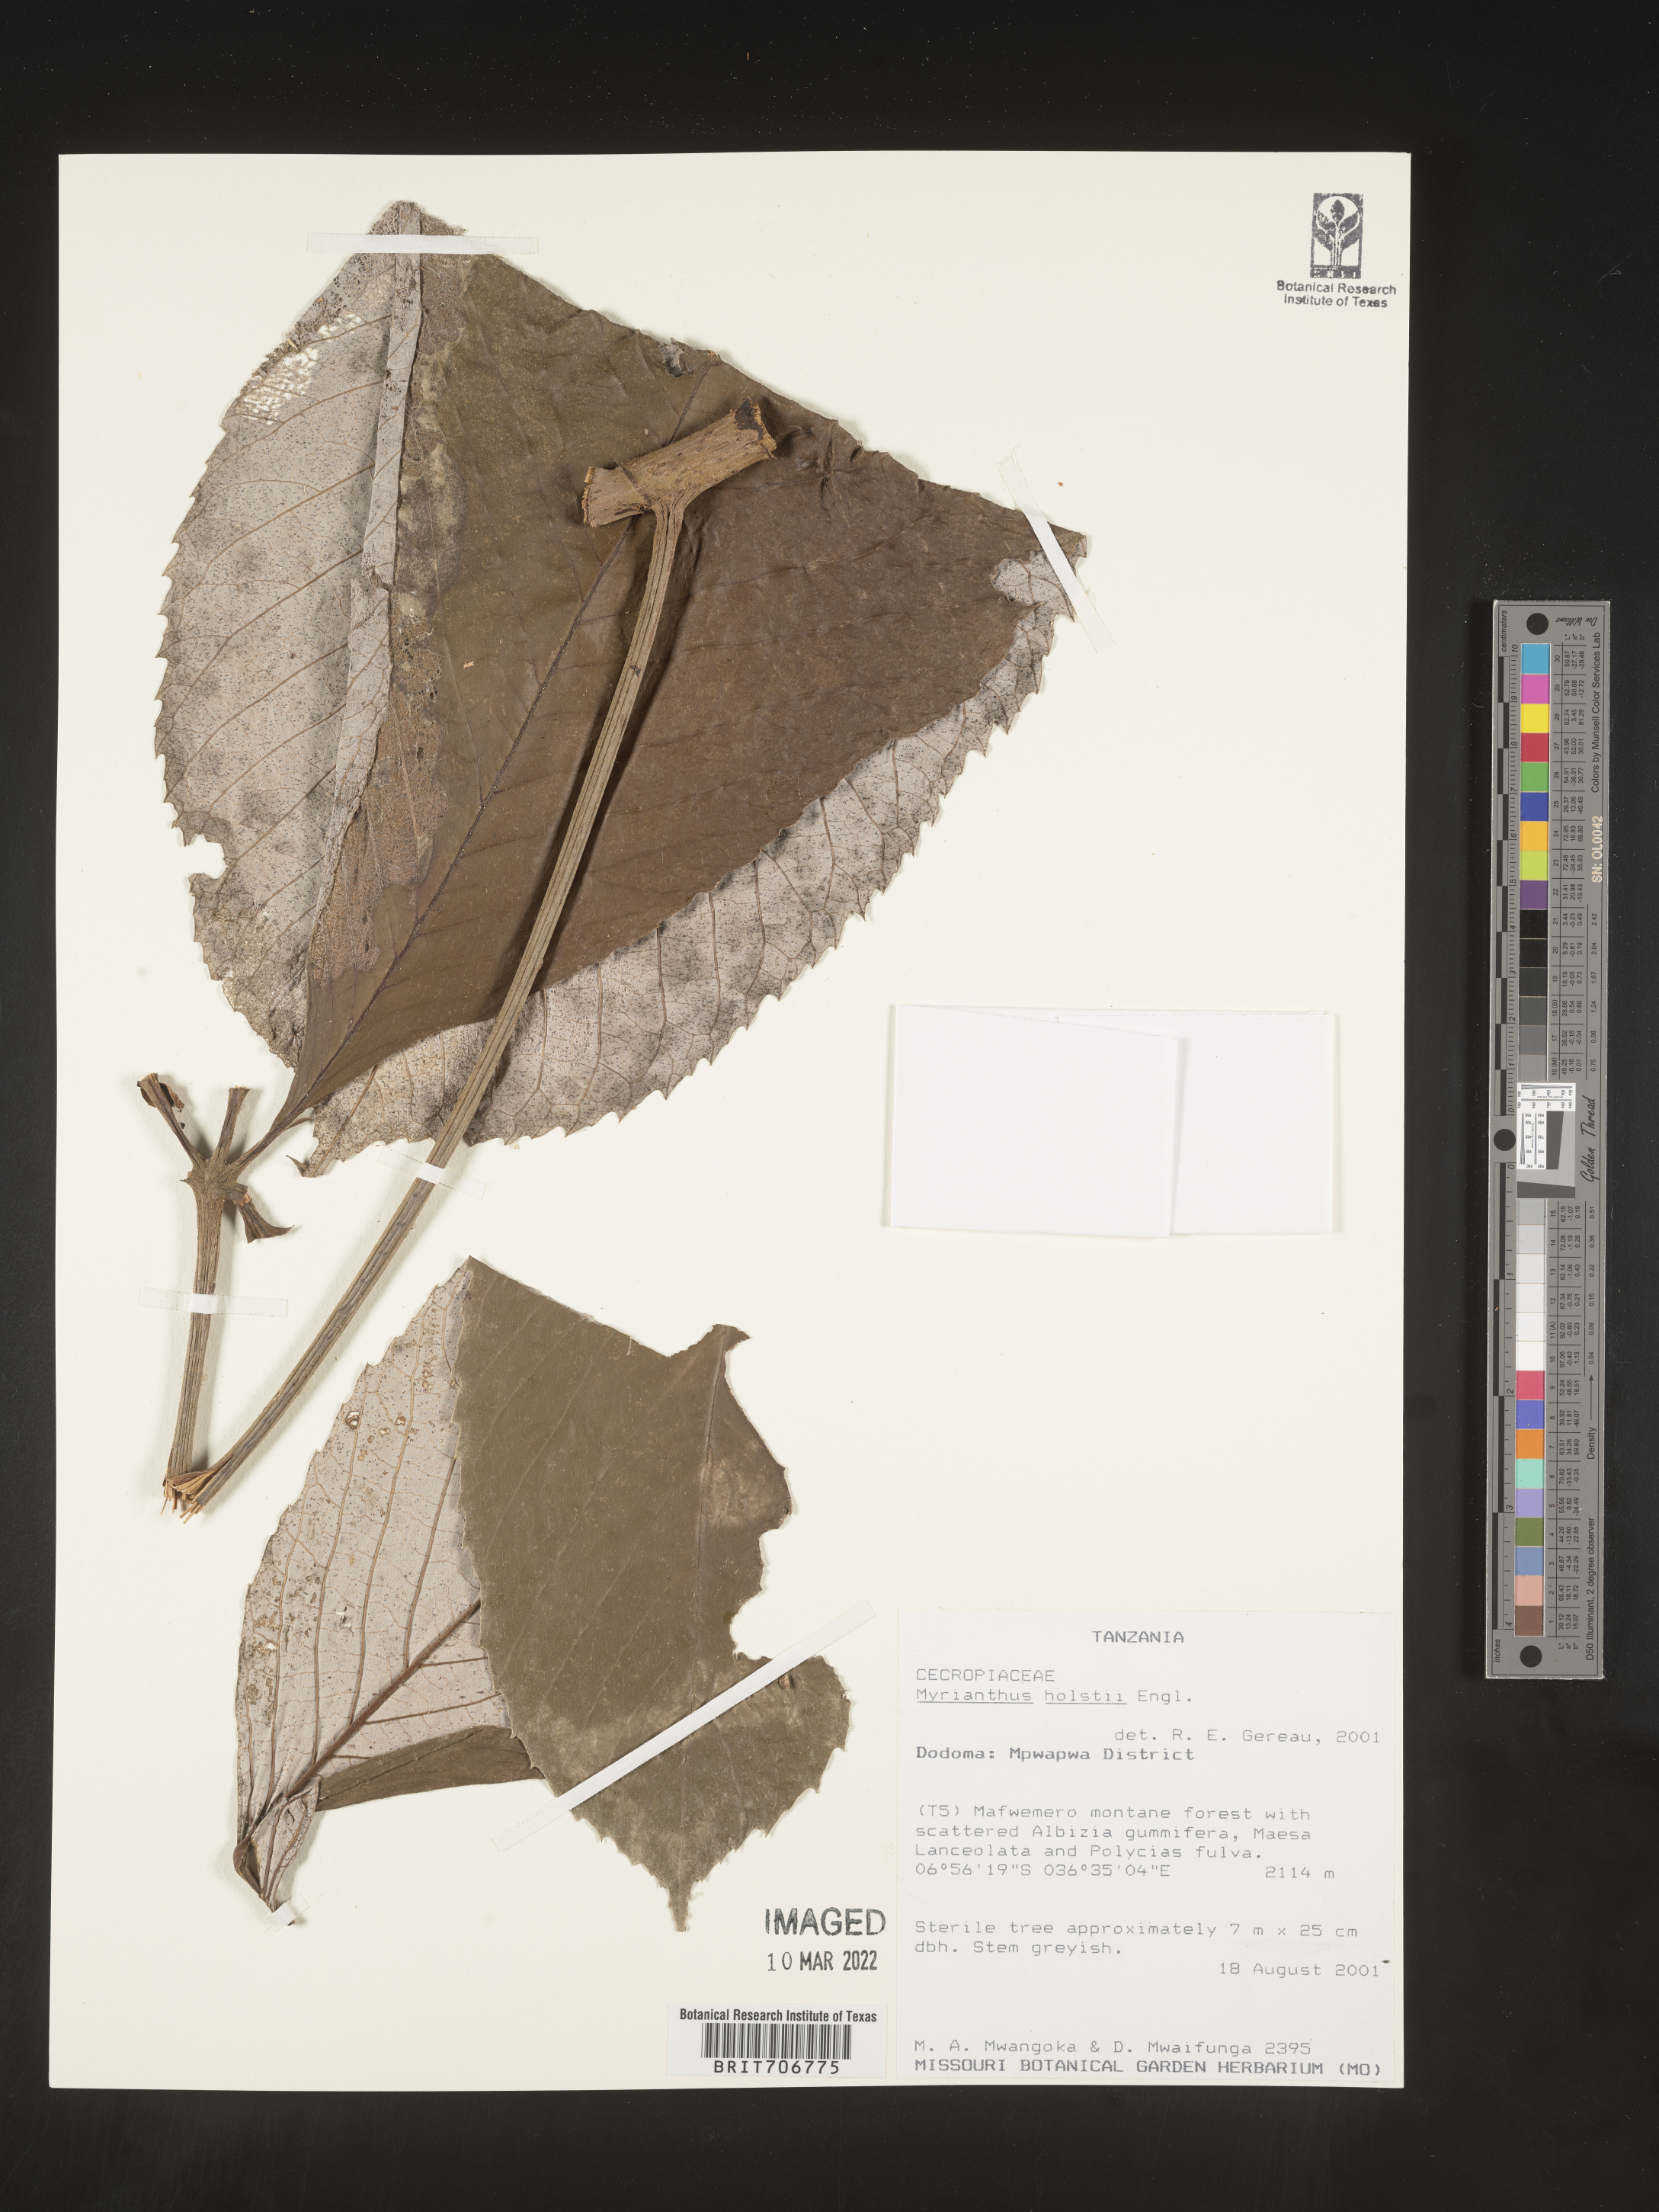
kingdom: Plantae
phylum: Tracheophyta
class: Magnoliopsida
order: Rosales
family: Urticaceae
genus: Myrianthus
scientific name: Myrianthus
